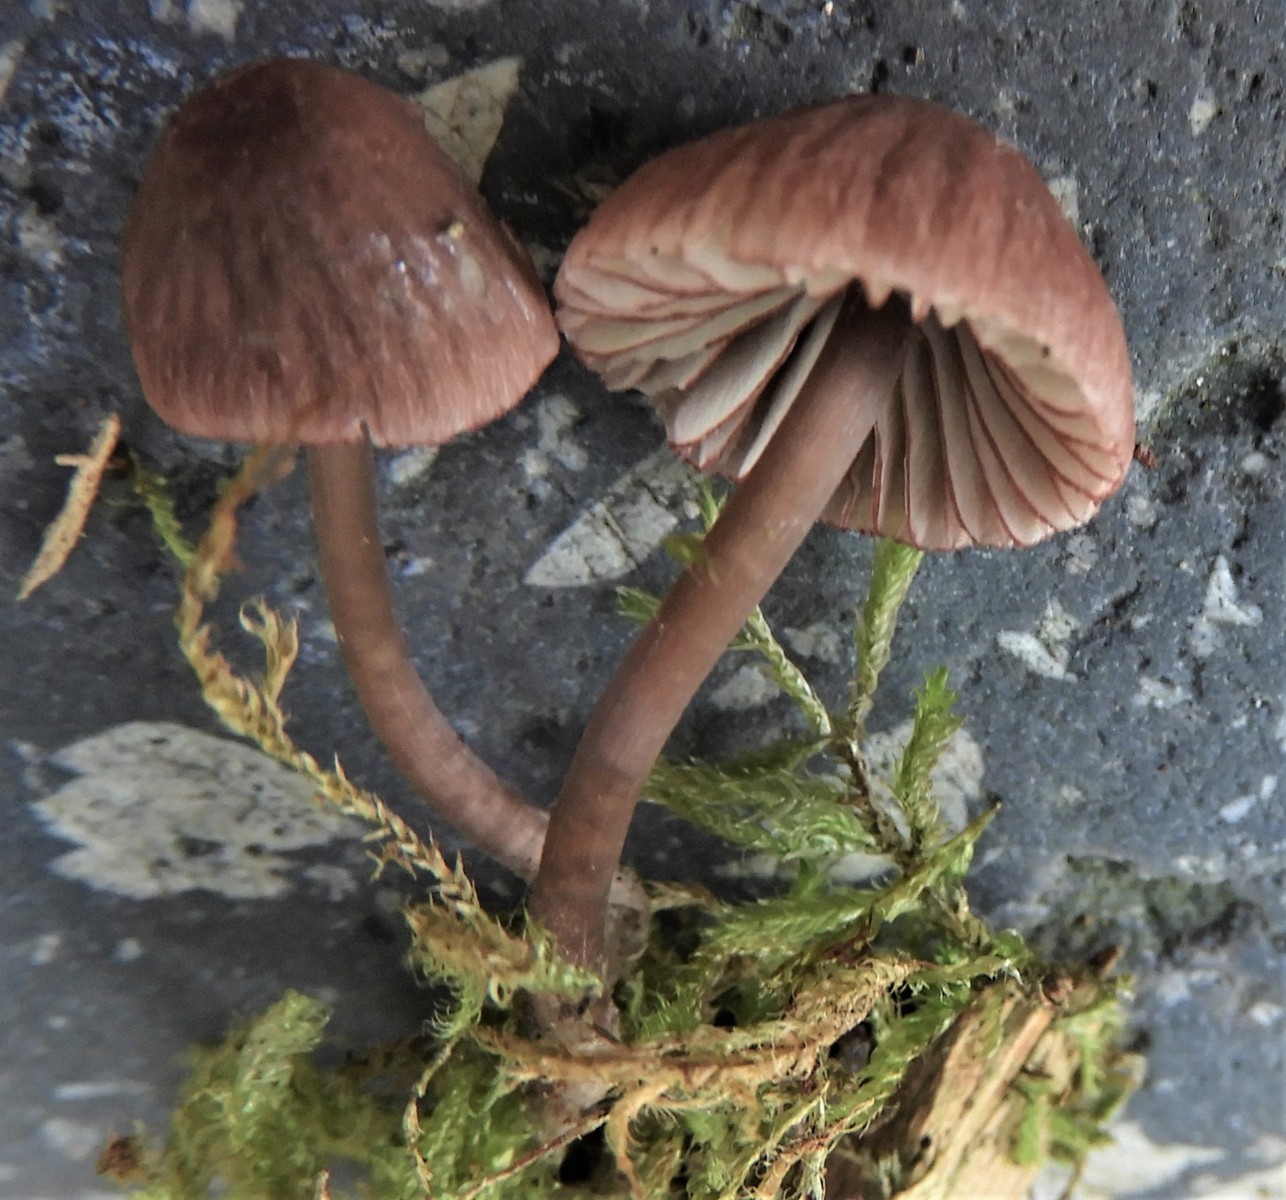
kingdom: Fungi
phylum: Basidiomycota
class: Agaricomycetes
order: Agaricales
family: Mycenaceae
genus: Mycena
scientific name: Mycena rubromarginata
